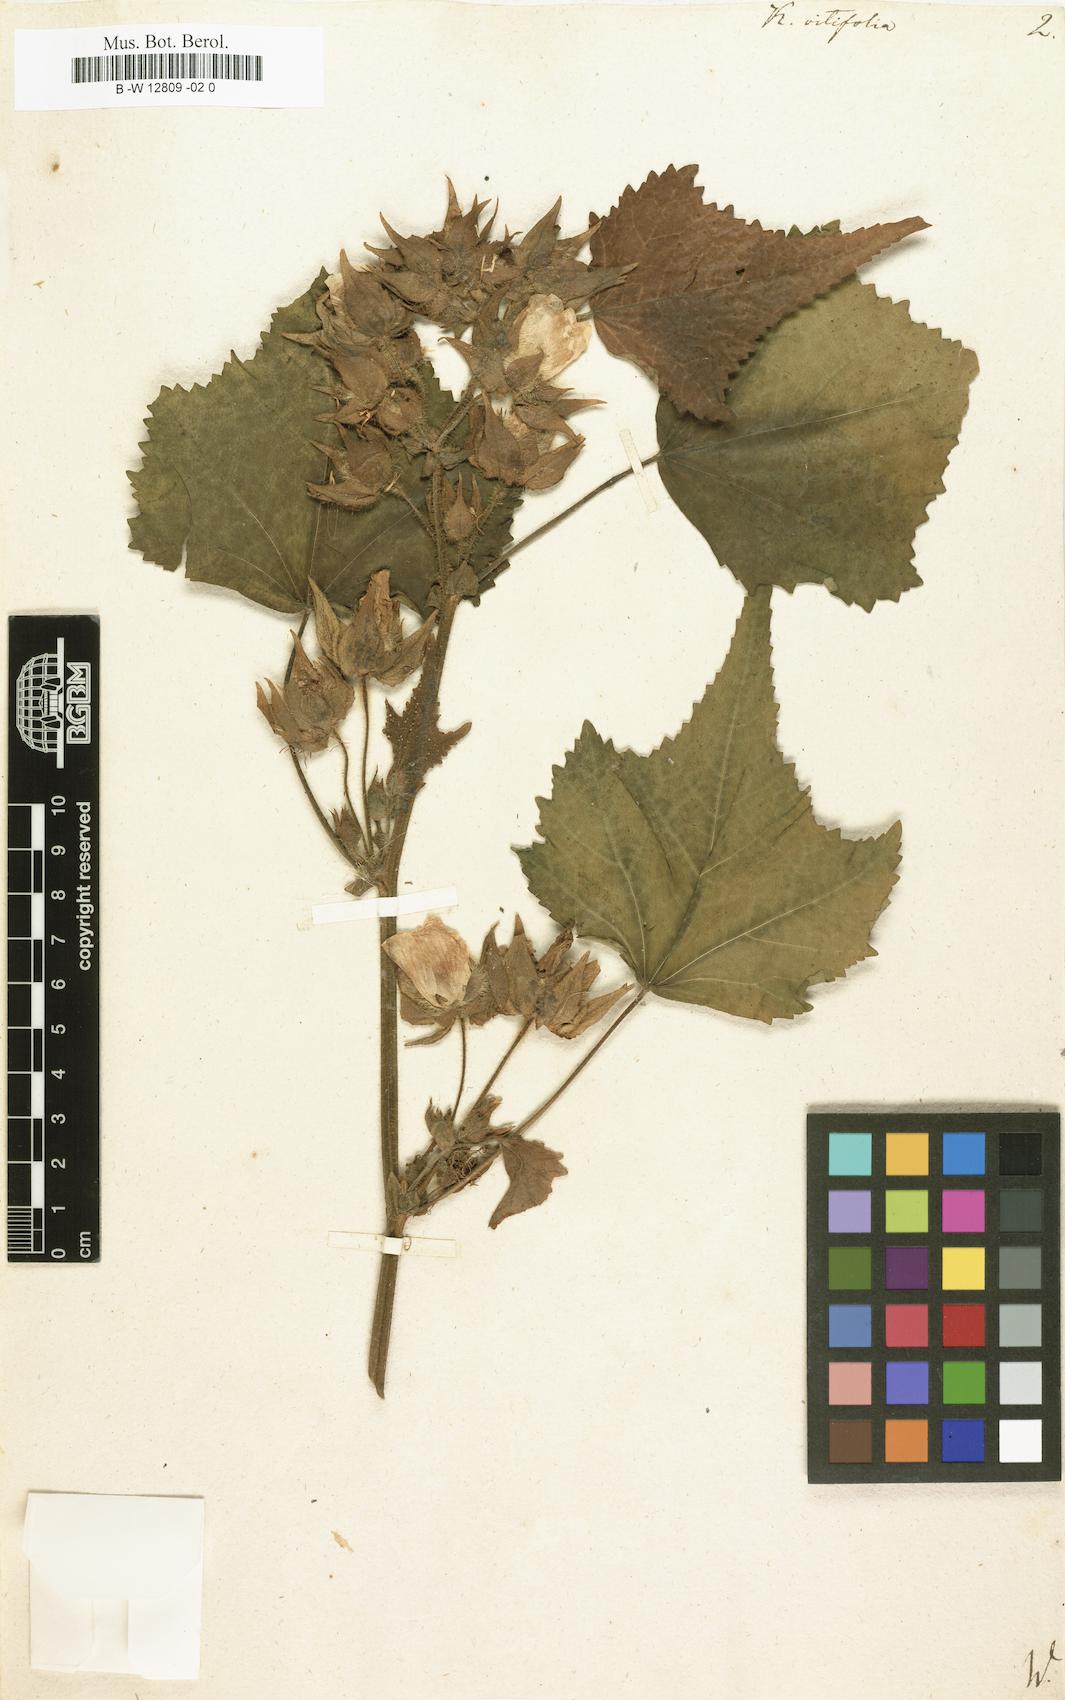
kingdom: Plantae
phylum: Tracheophyta
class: Magnoliopsida
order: Malvales
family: Malvaceae
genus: Kitaibela
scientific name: Kitaibela vitifolia
